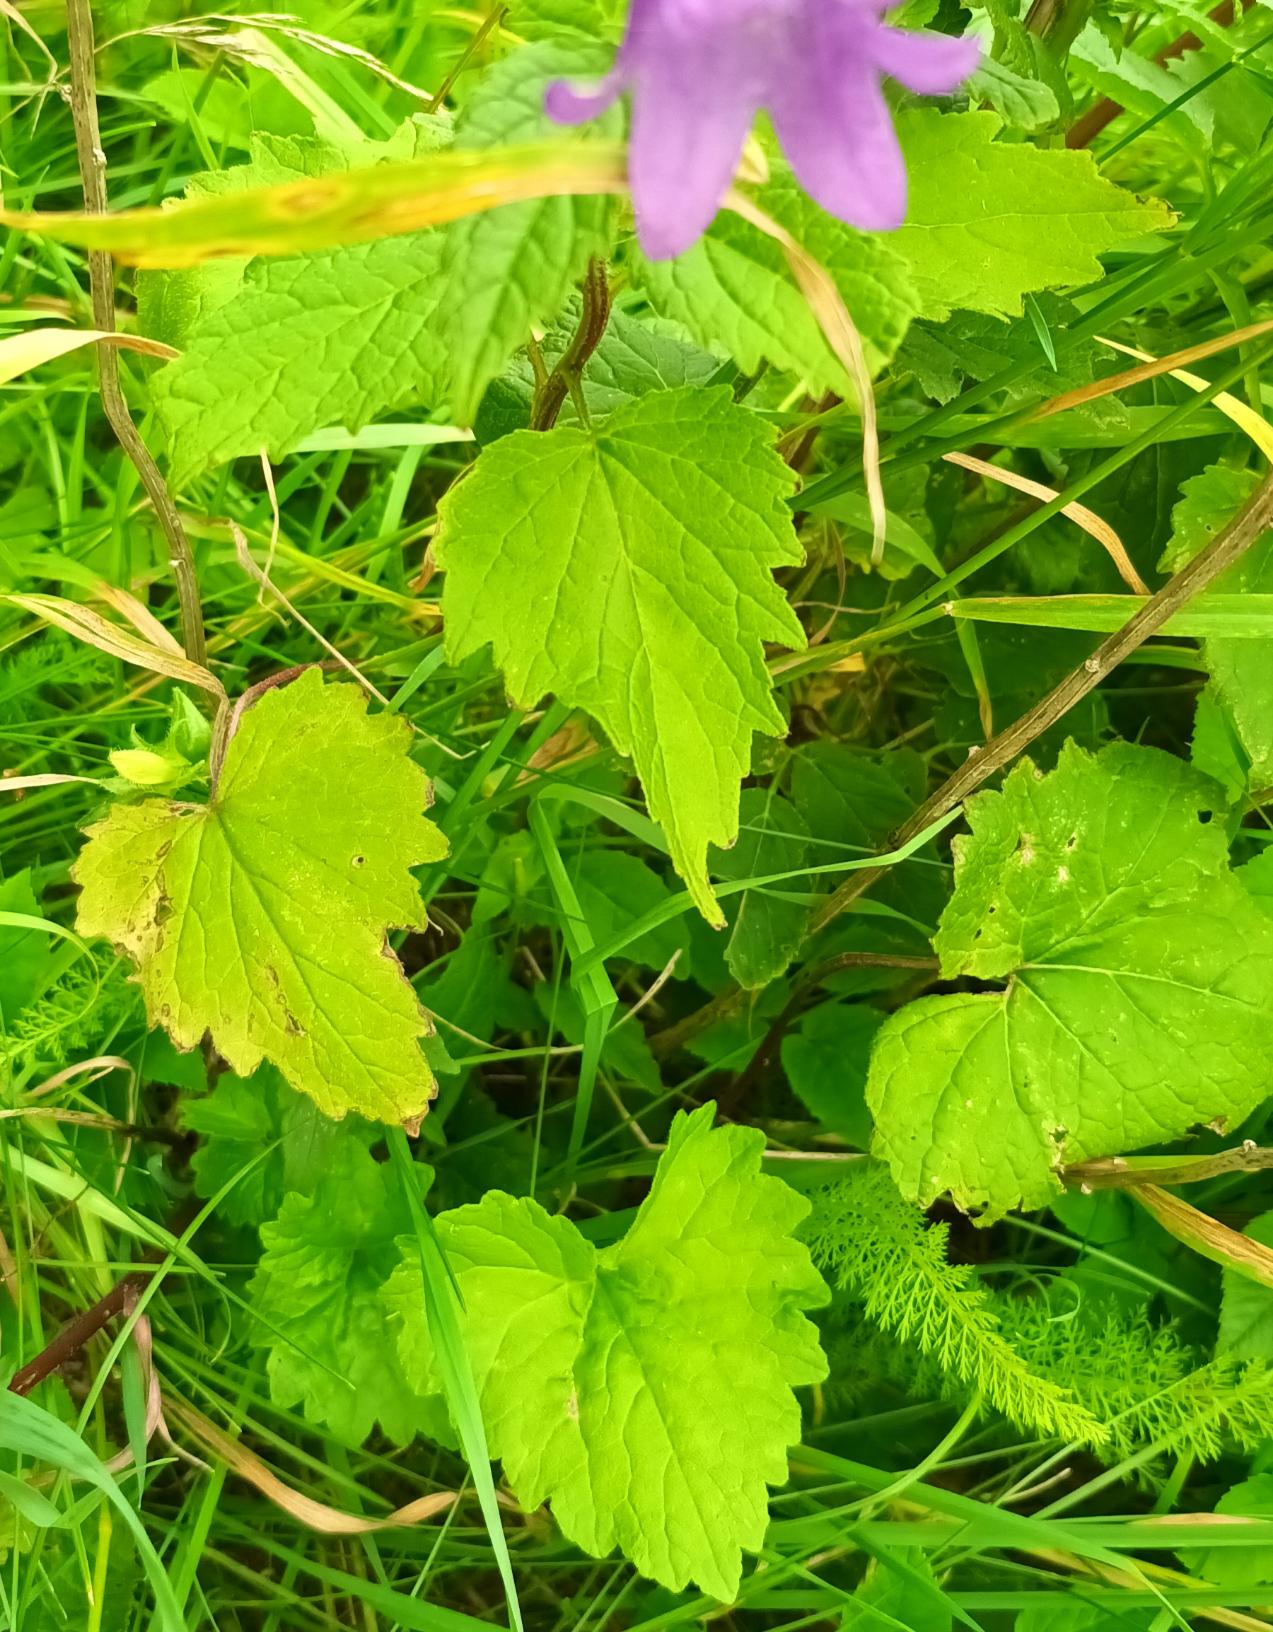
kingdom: Plantae
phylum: Tracheophyta
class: Magnoliopsida
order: Asterales
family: Campanulaceae
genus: Campanula
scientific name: Campanula trachelium
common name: Nælde-klokke
